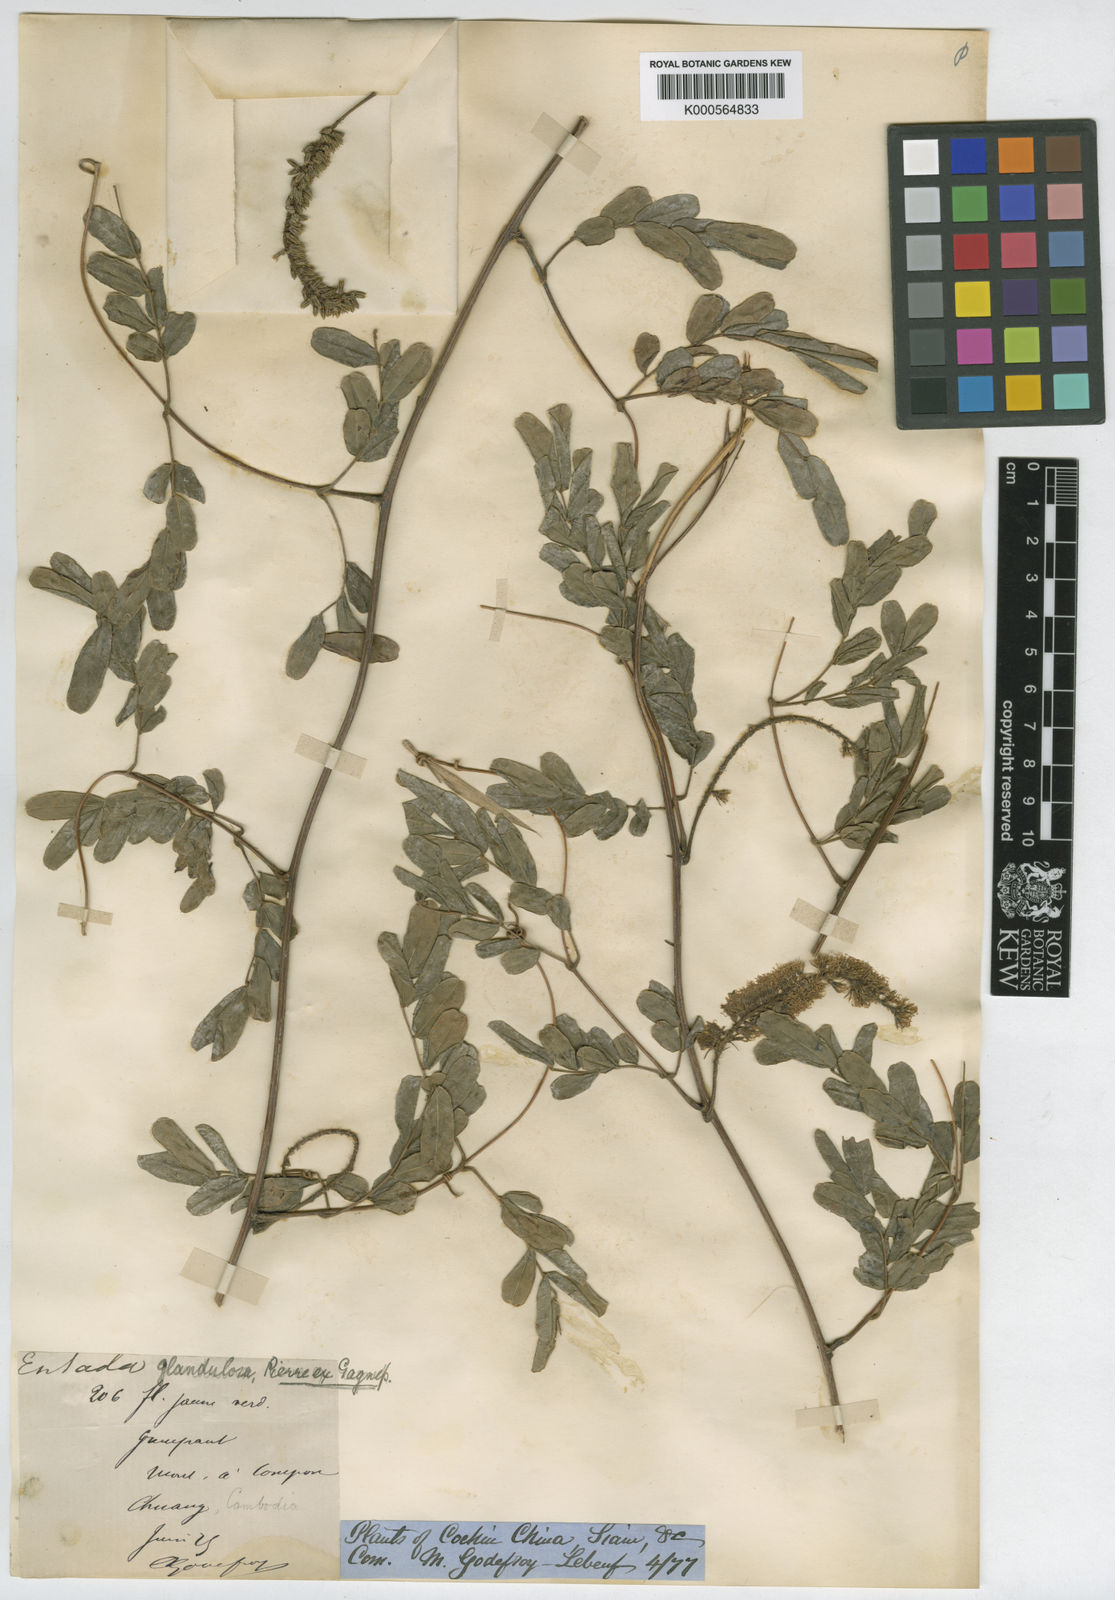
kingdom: Plantae
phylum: Tracheophyta
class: Magnoliopsida
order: Fabales
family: Fabaceae
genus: Entada
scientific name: Entada glandulosa
